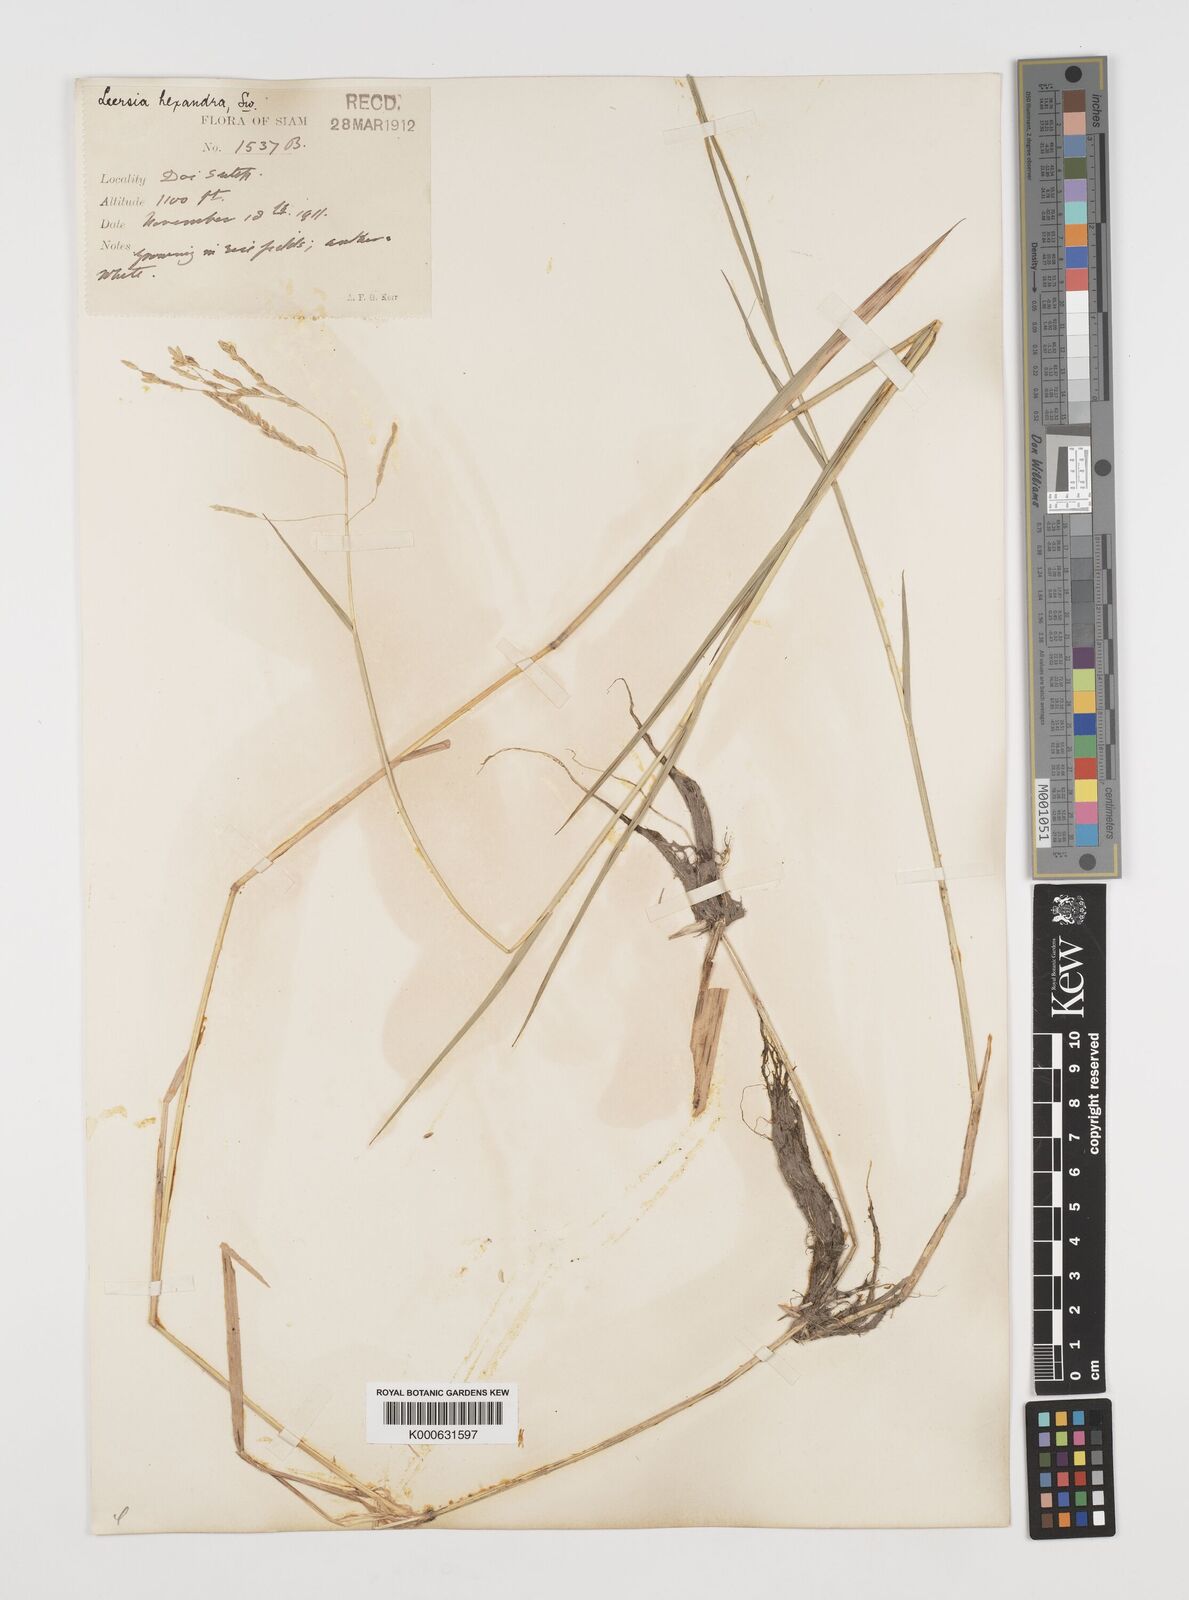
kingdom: Plantae
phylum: Tracheophyta
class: Liliopsida
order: Poales
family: Poaceae
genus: Leersia
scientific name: Leersia hexandra
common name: Southern cut grass
